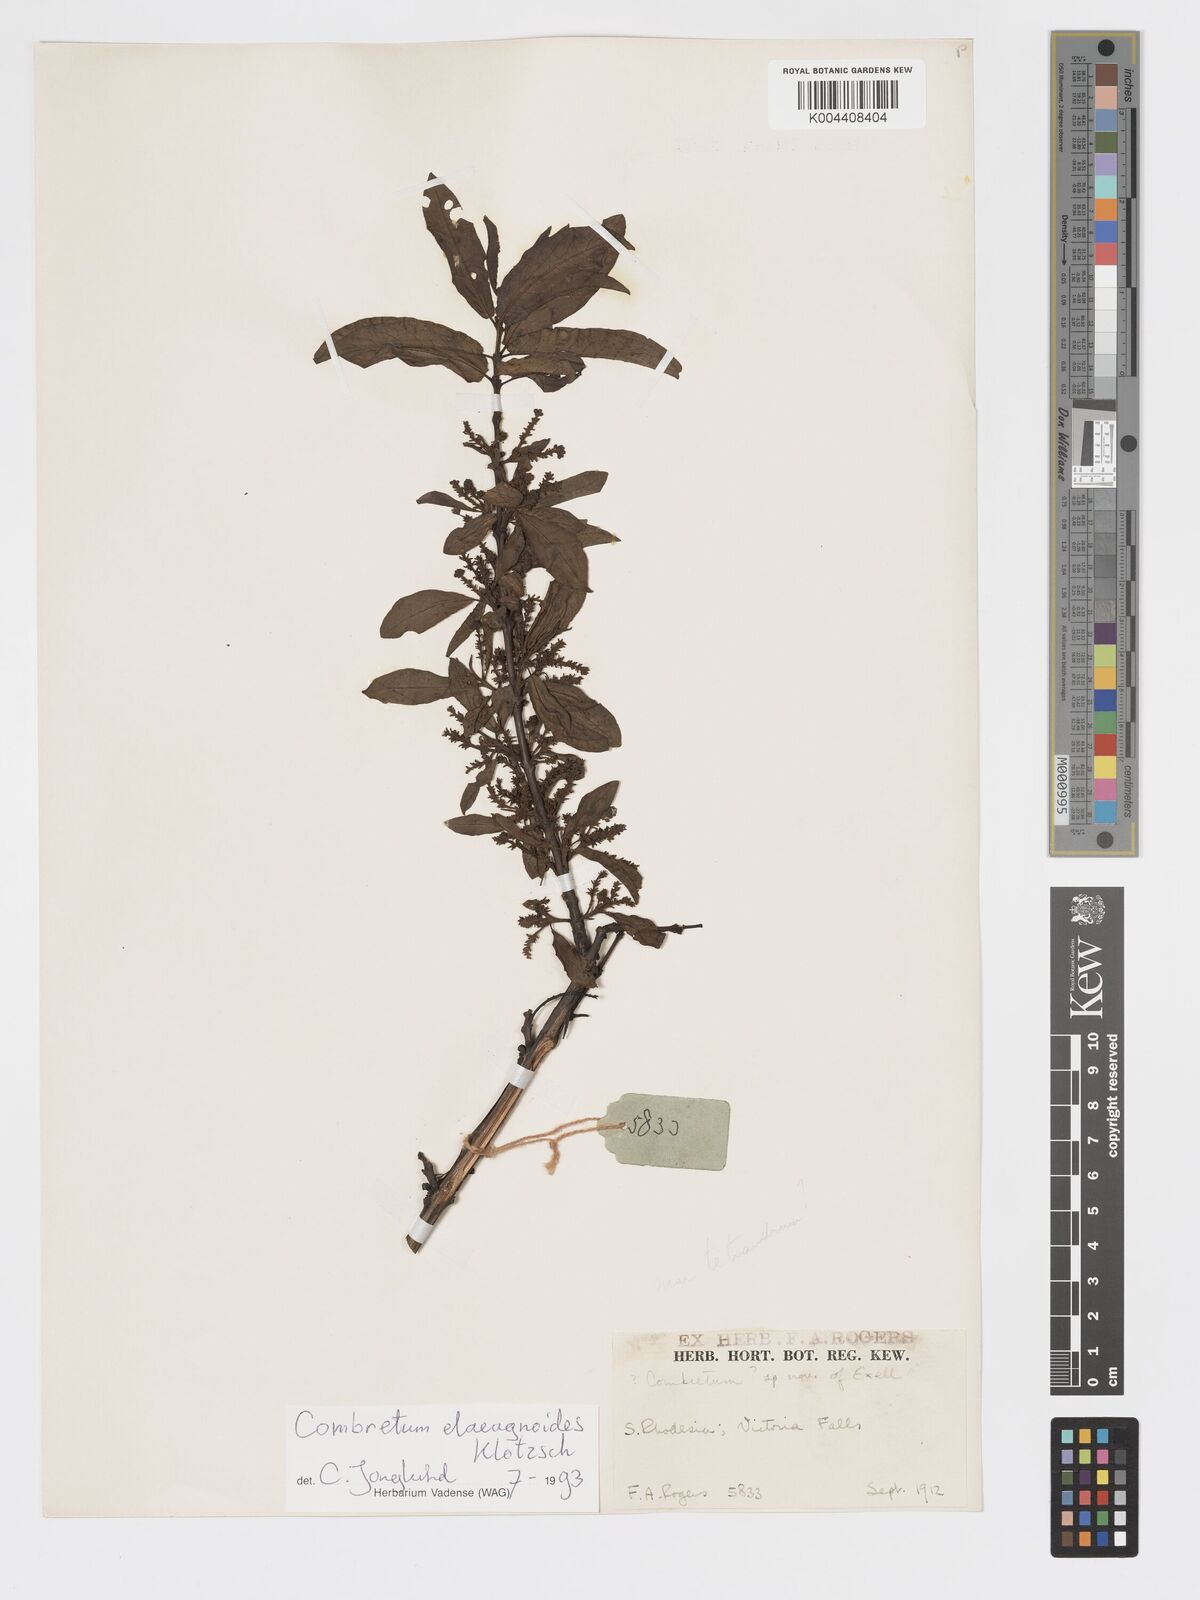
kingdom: Plantae
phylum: Tracheophyta
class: Magnoliopsida
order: Myrtales
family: Combretaceae
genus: Combretum
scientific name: Combretum elaeagnoides
